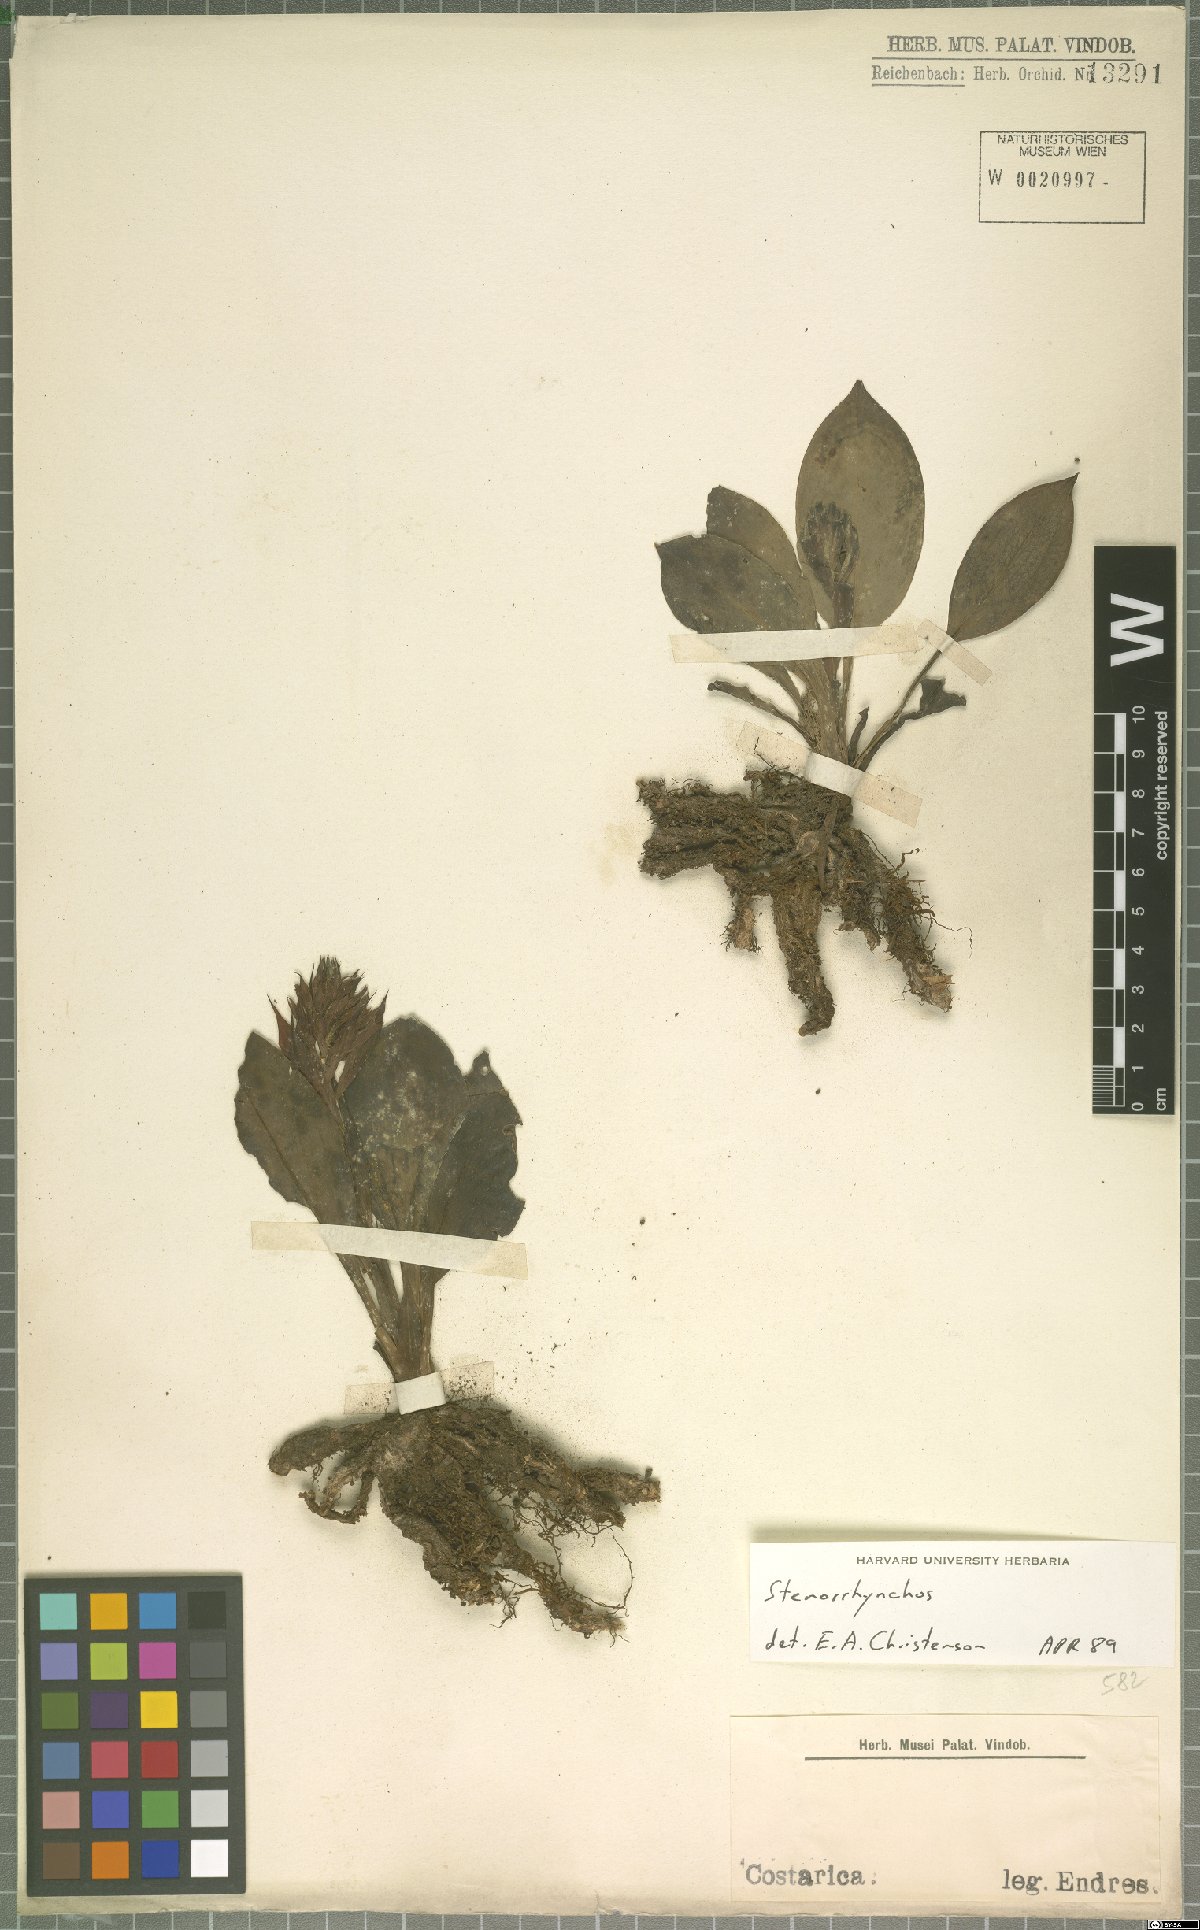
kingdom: Plantae
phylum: Tracheophyta
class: Liliopsida
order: Asparagales
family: Orchidaceae
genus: Stenorrhynchos
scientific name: Stenorrhynchos
